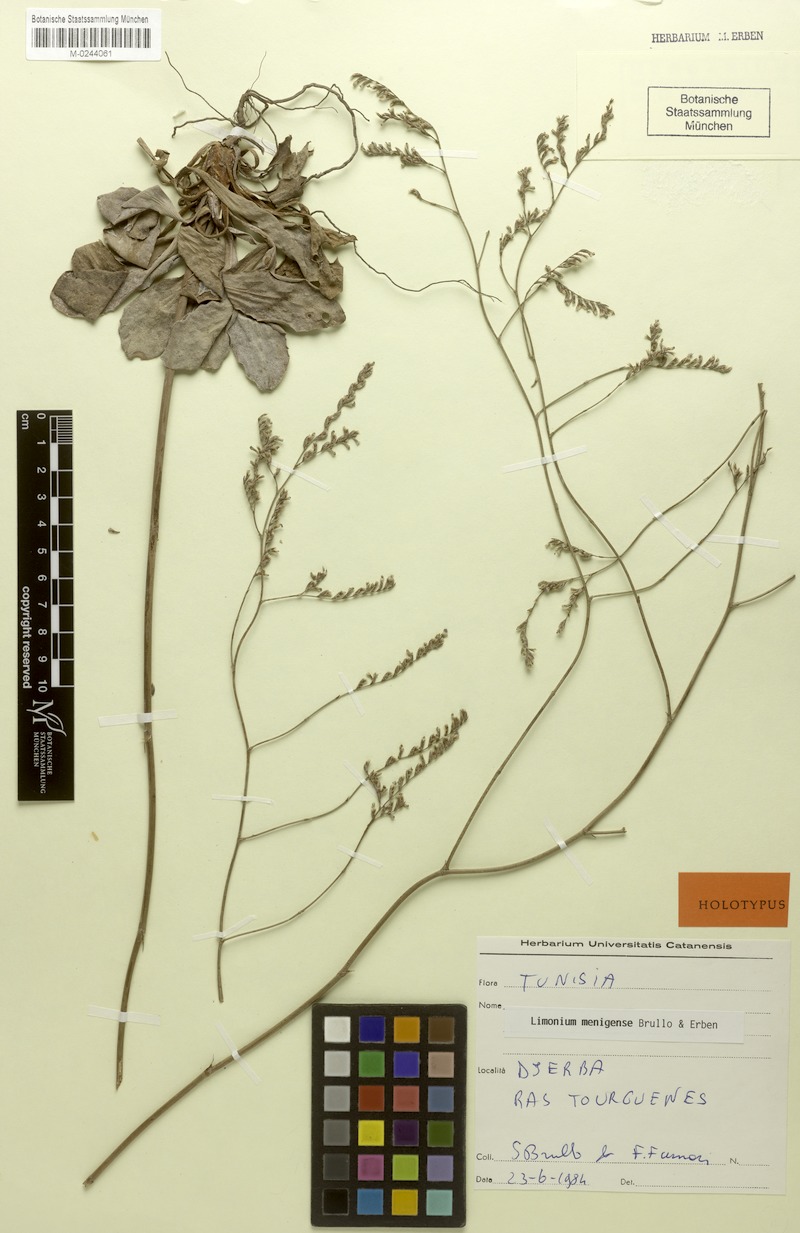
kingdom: Plantae
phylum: Tracheophyta
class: Magnoliopsida
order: Caryophyllales
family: Plumbaginaceae
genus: Limonium
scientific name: Limonium menigense
